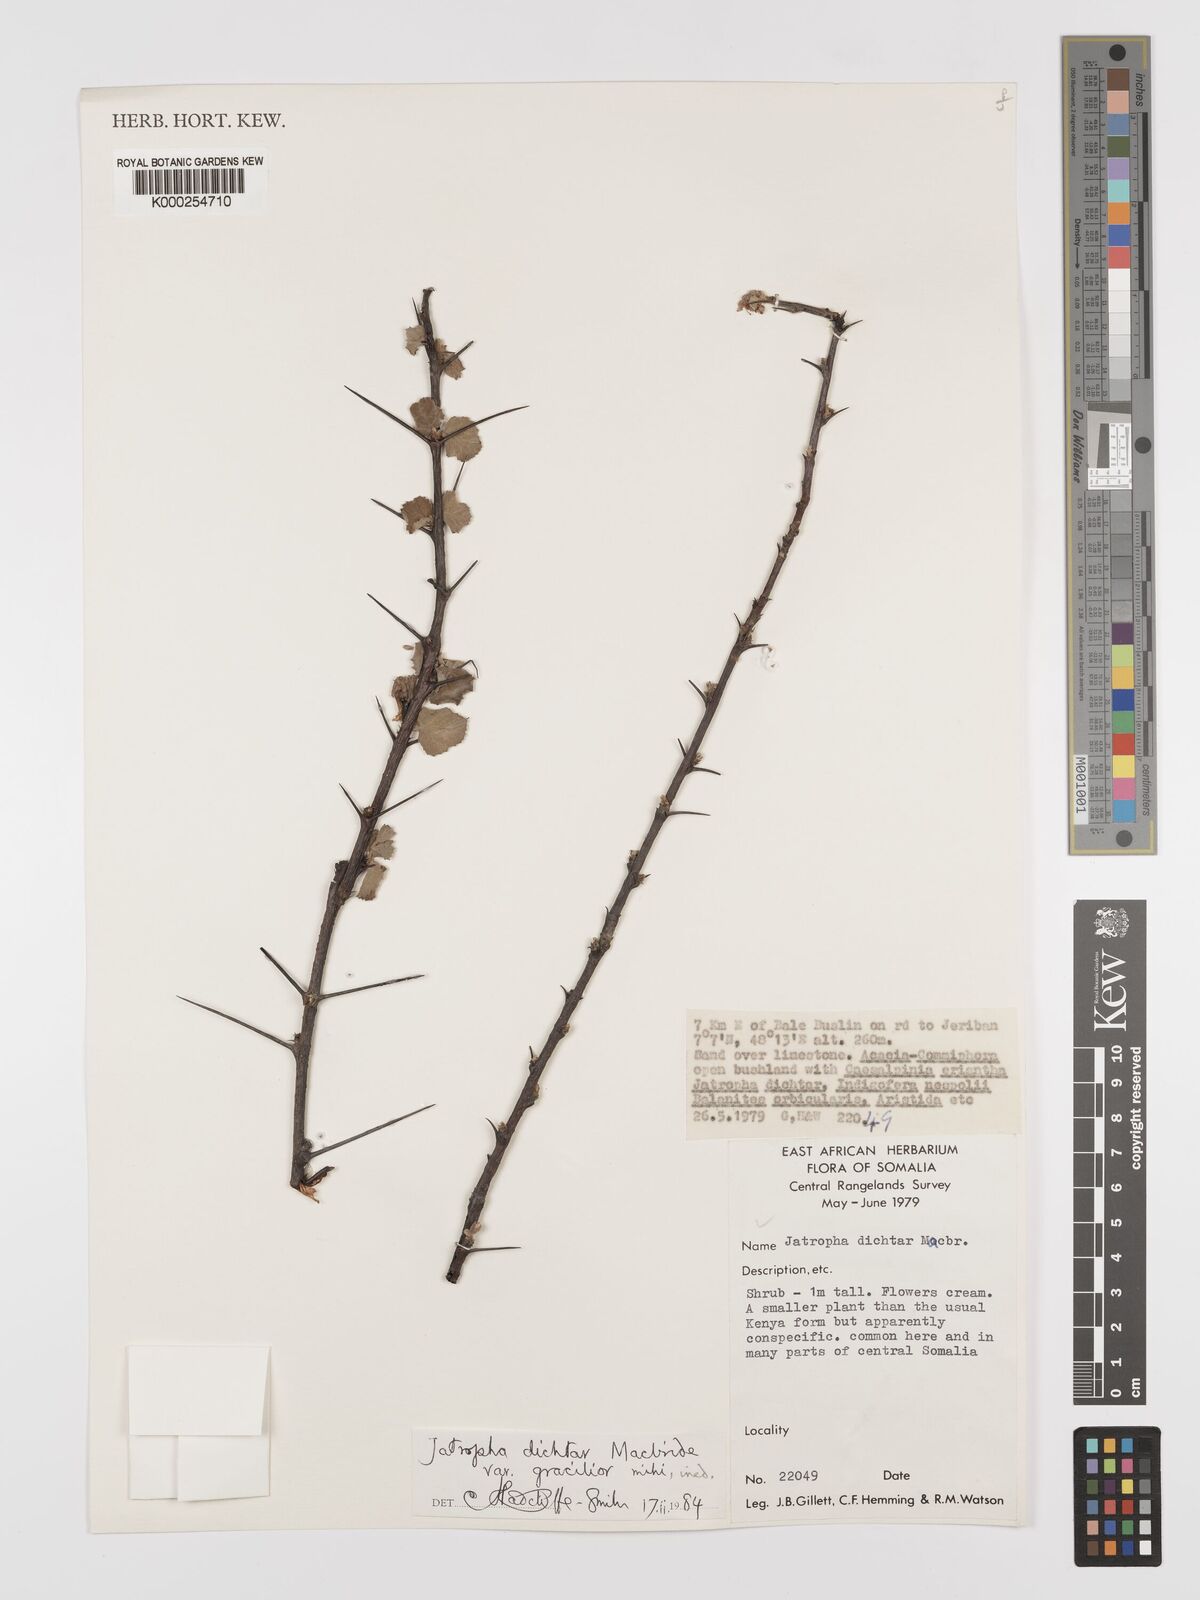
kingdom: Plantae
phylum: Tracheophyta
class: Magnoliopsida
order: Malpighiales
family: Euphorbiaceae
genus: Jatropha
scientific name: Jatropha dichtar
